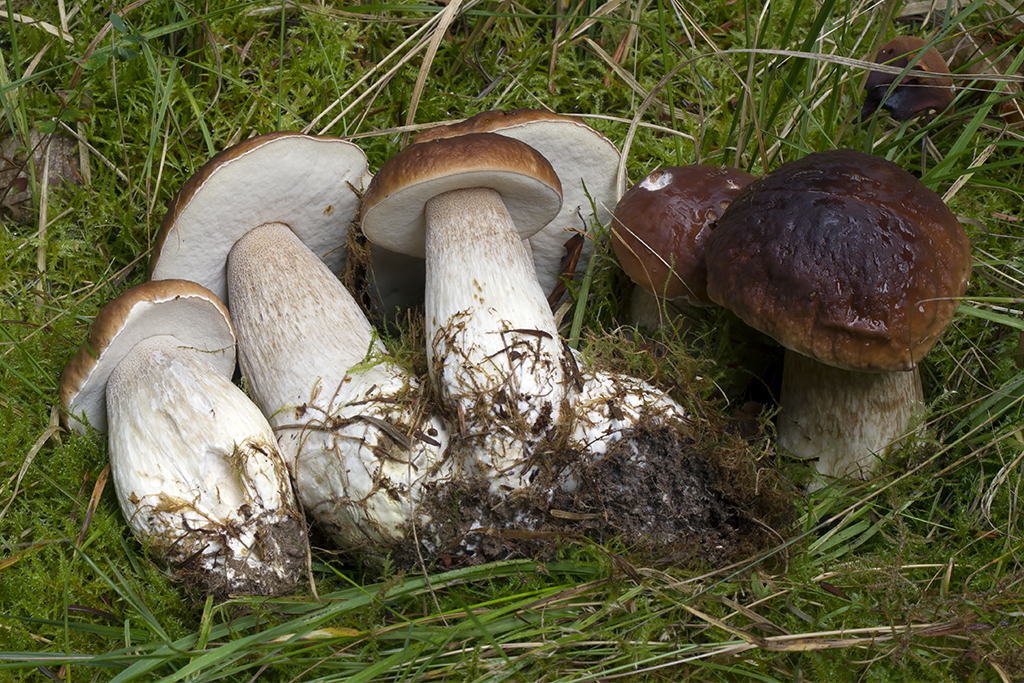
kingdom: Fungi
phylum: Basidiomycota
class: Agaricomycetes
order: Boletales
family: Boletaceae
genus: Boletus
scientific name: Boletus edulis
